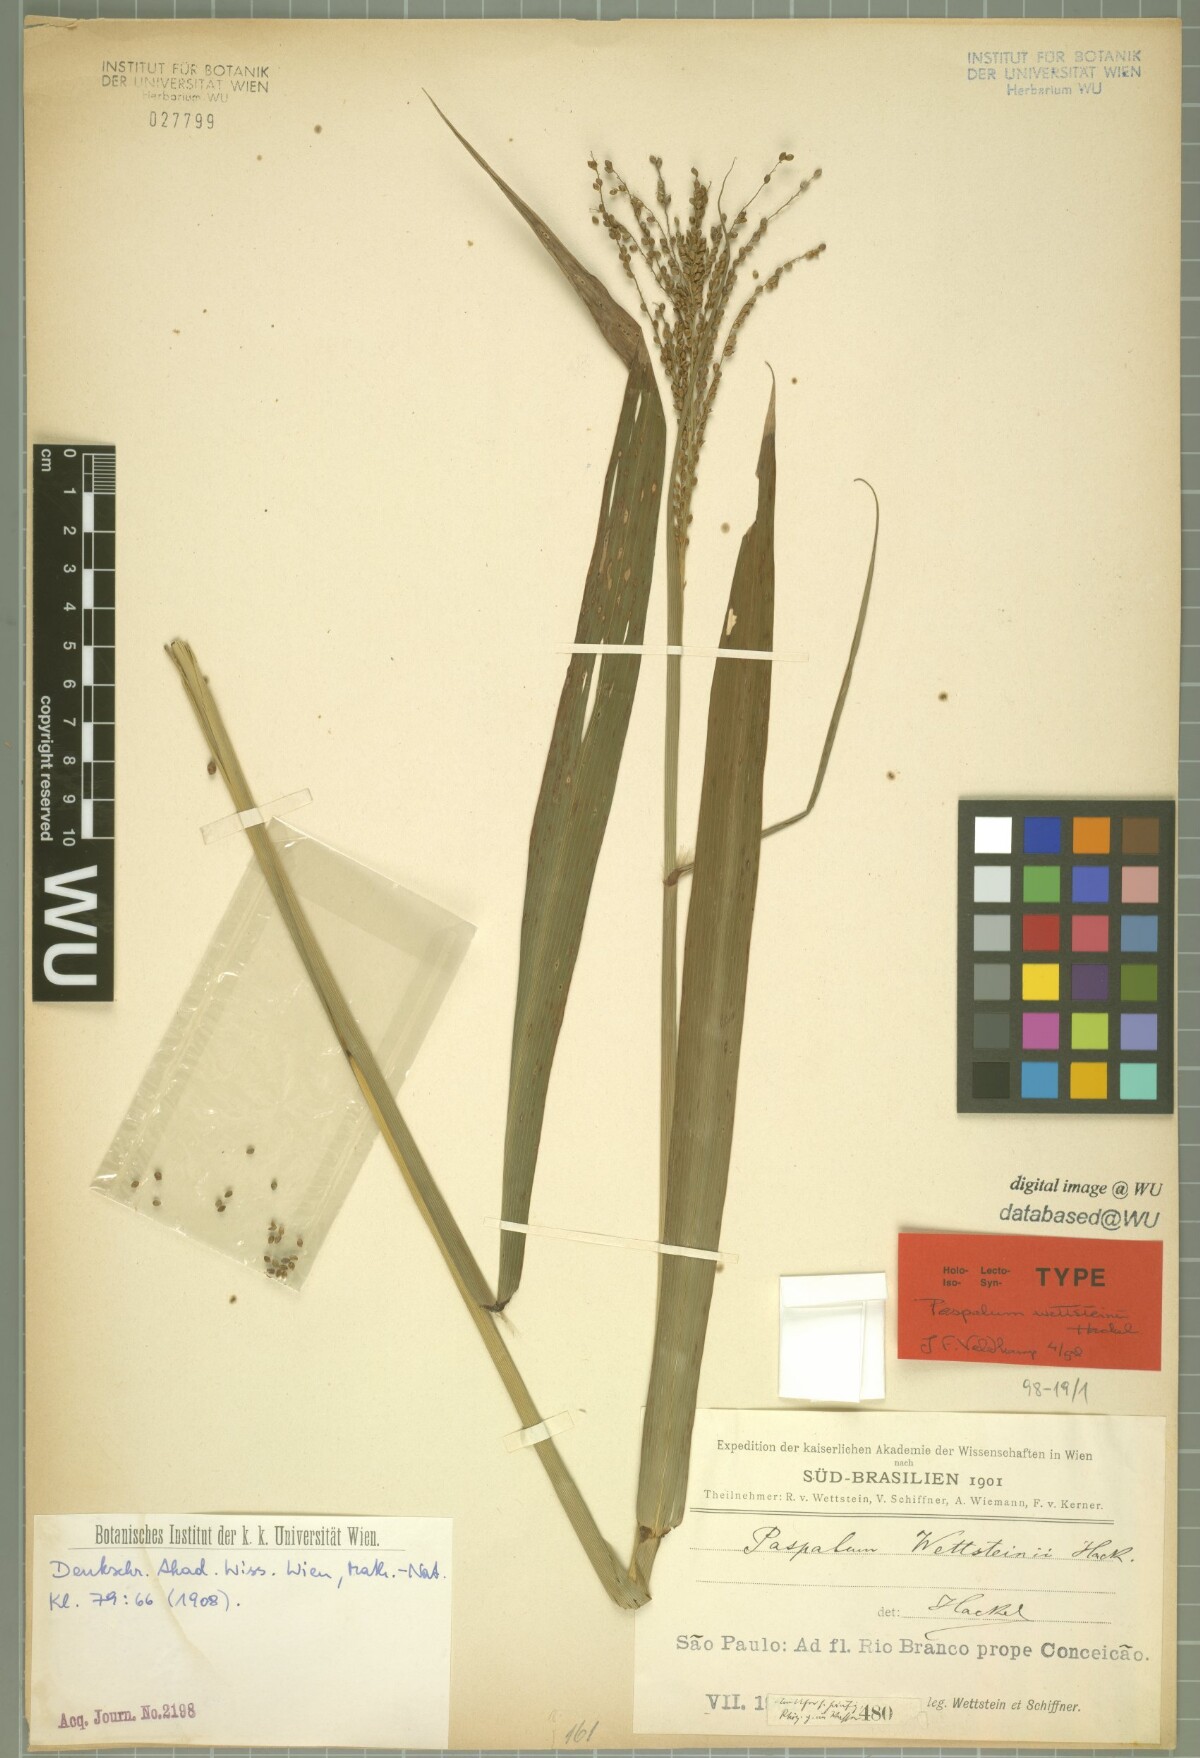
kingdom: Plantae
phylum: Tracheophyta
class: Liliopsida
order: Poales
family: Poaceae
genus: Paspalum
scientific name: Paspalum virgatum
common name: Talquezal
